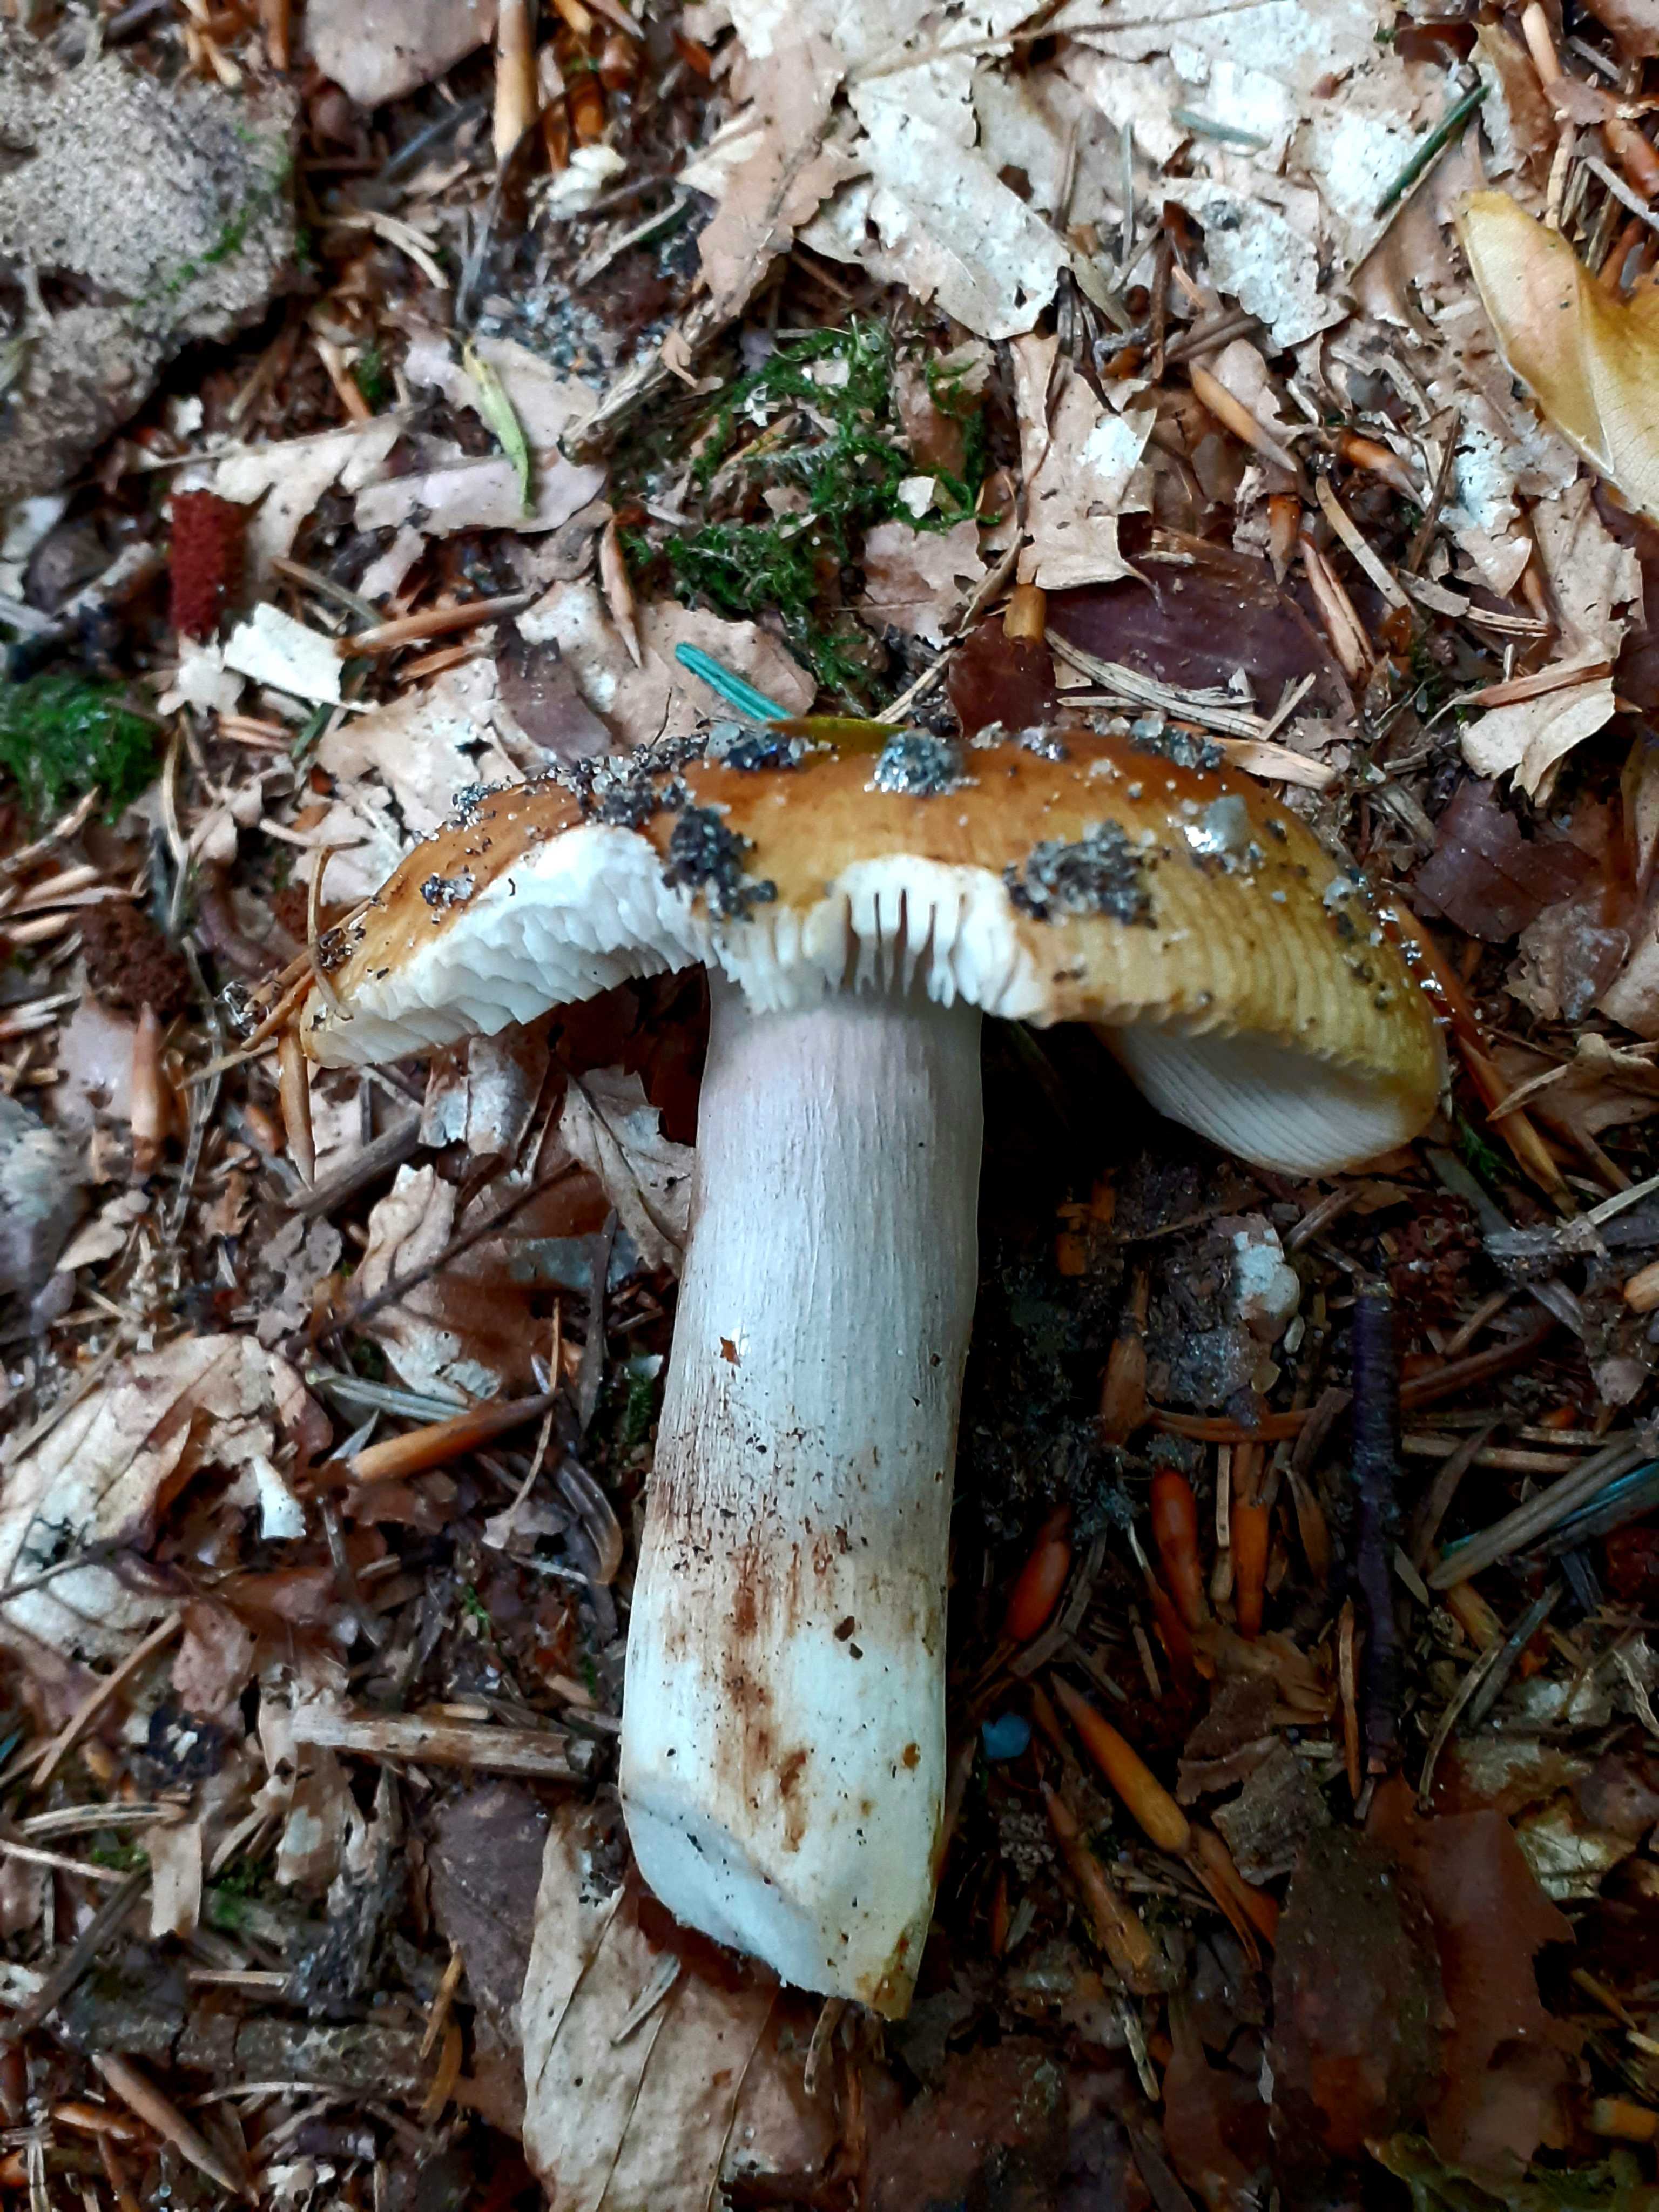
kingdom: Fungi
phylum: Basidiomycota
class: Agaricomycetes
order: Russulales
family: Russulaceae
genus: Russula
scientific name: Russula grata
